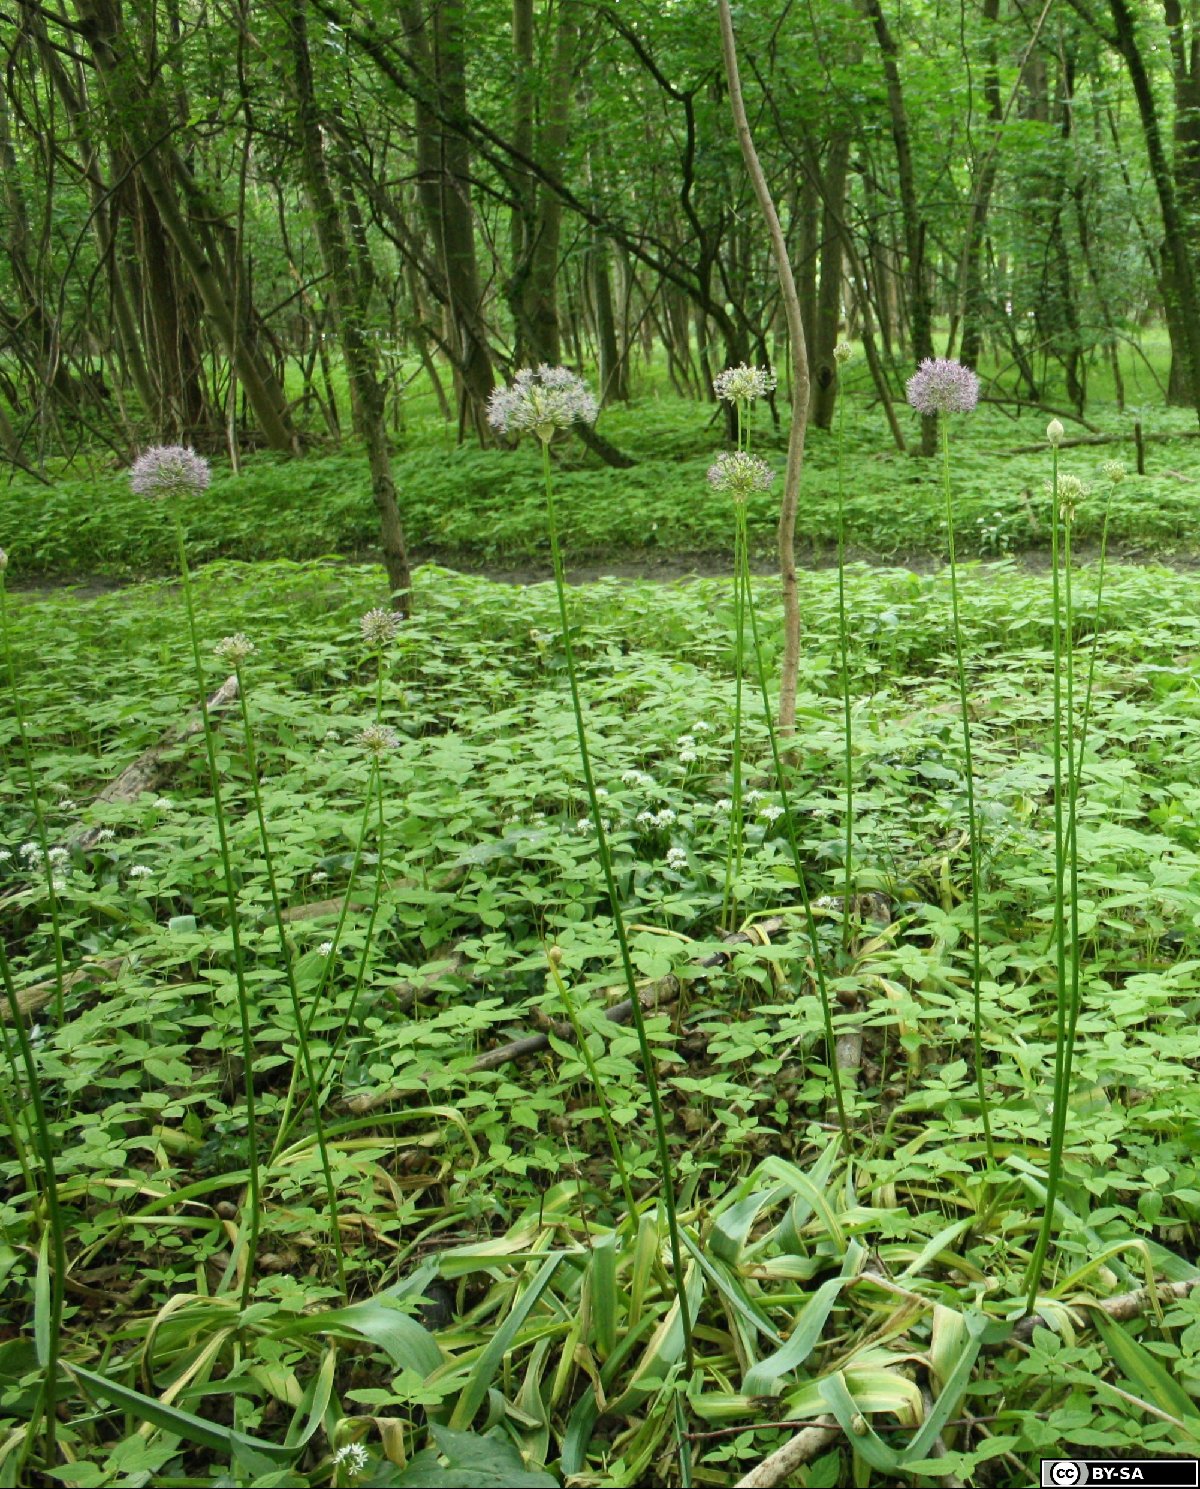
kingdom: Plantae
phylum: Tracheophyta
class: Liliopsida
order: Asparagales
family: Amaryllidaceae
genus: Allium
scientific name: Allium stipitatum
